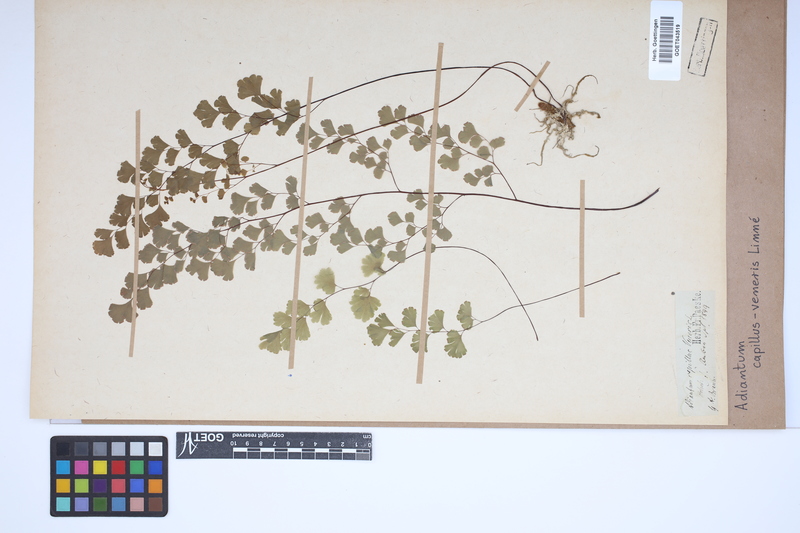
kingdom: Plantae
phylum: Tracheophyta
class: Polypodiopsida
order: Polypodiales
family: Pteridaceae
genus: Adiantum
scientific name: Adiantum capillus-veneris
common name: Maidenhair fern
